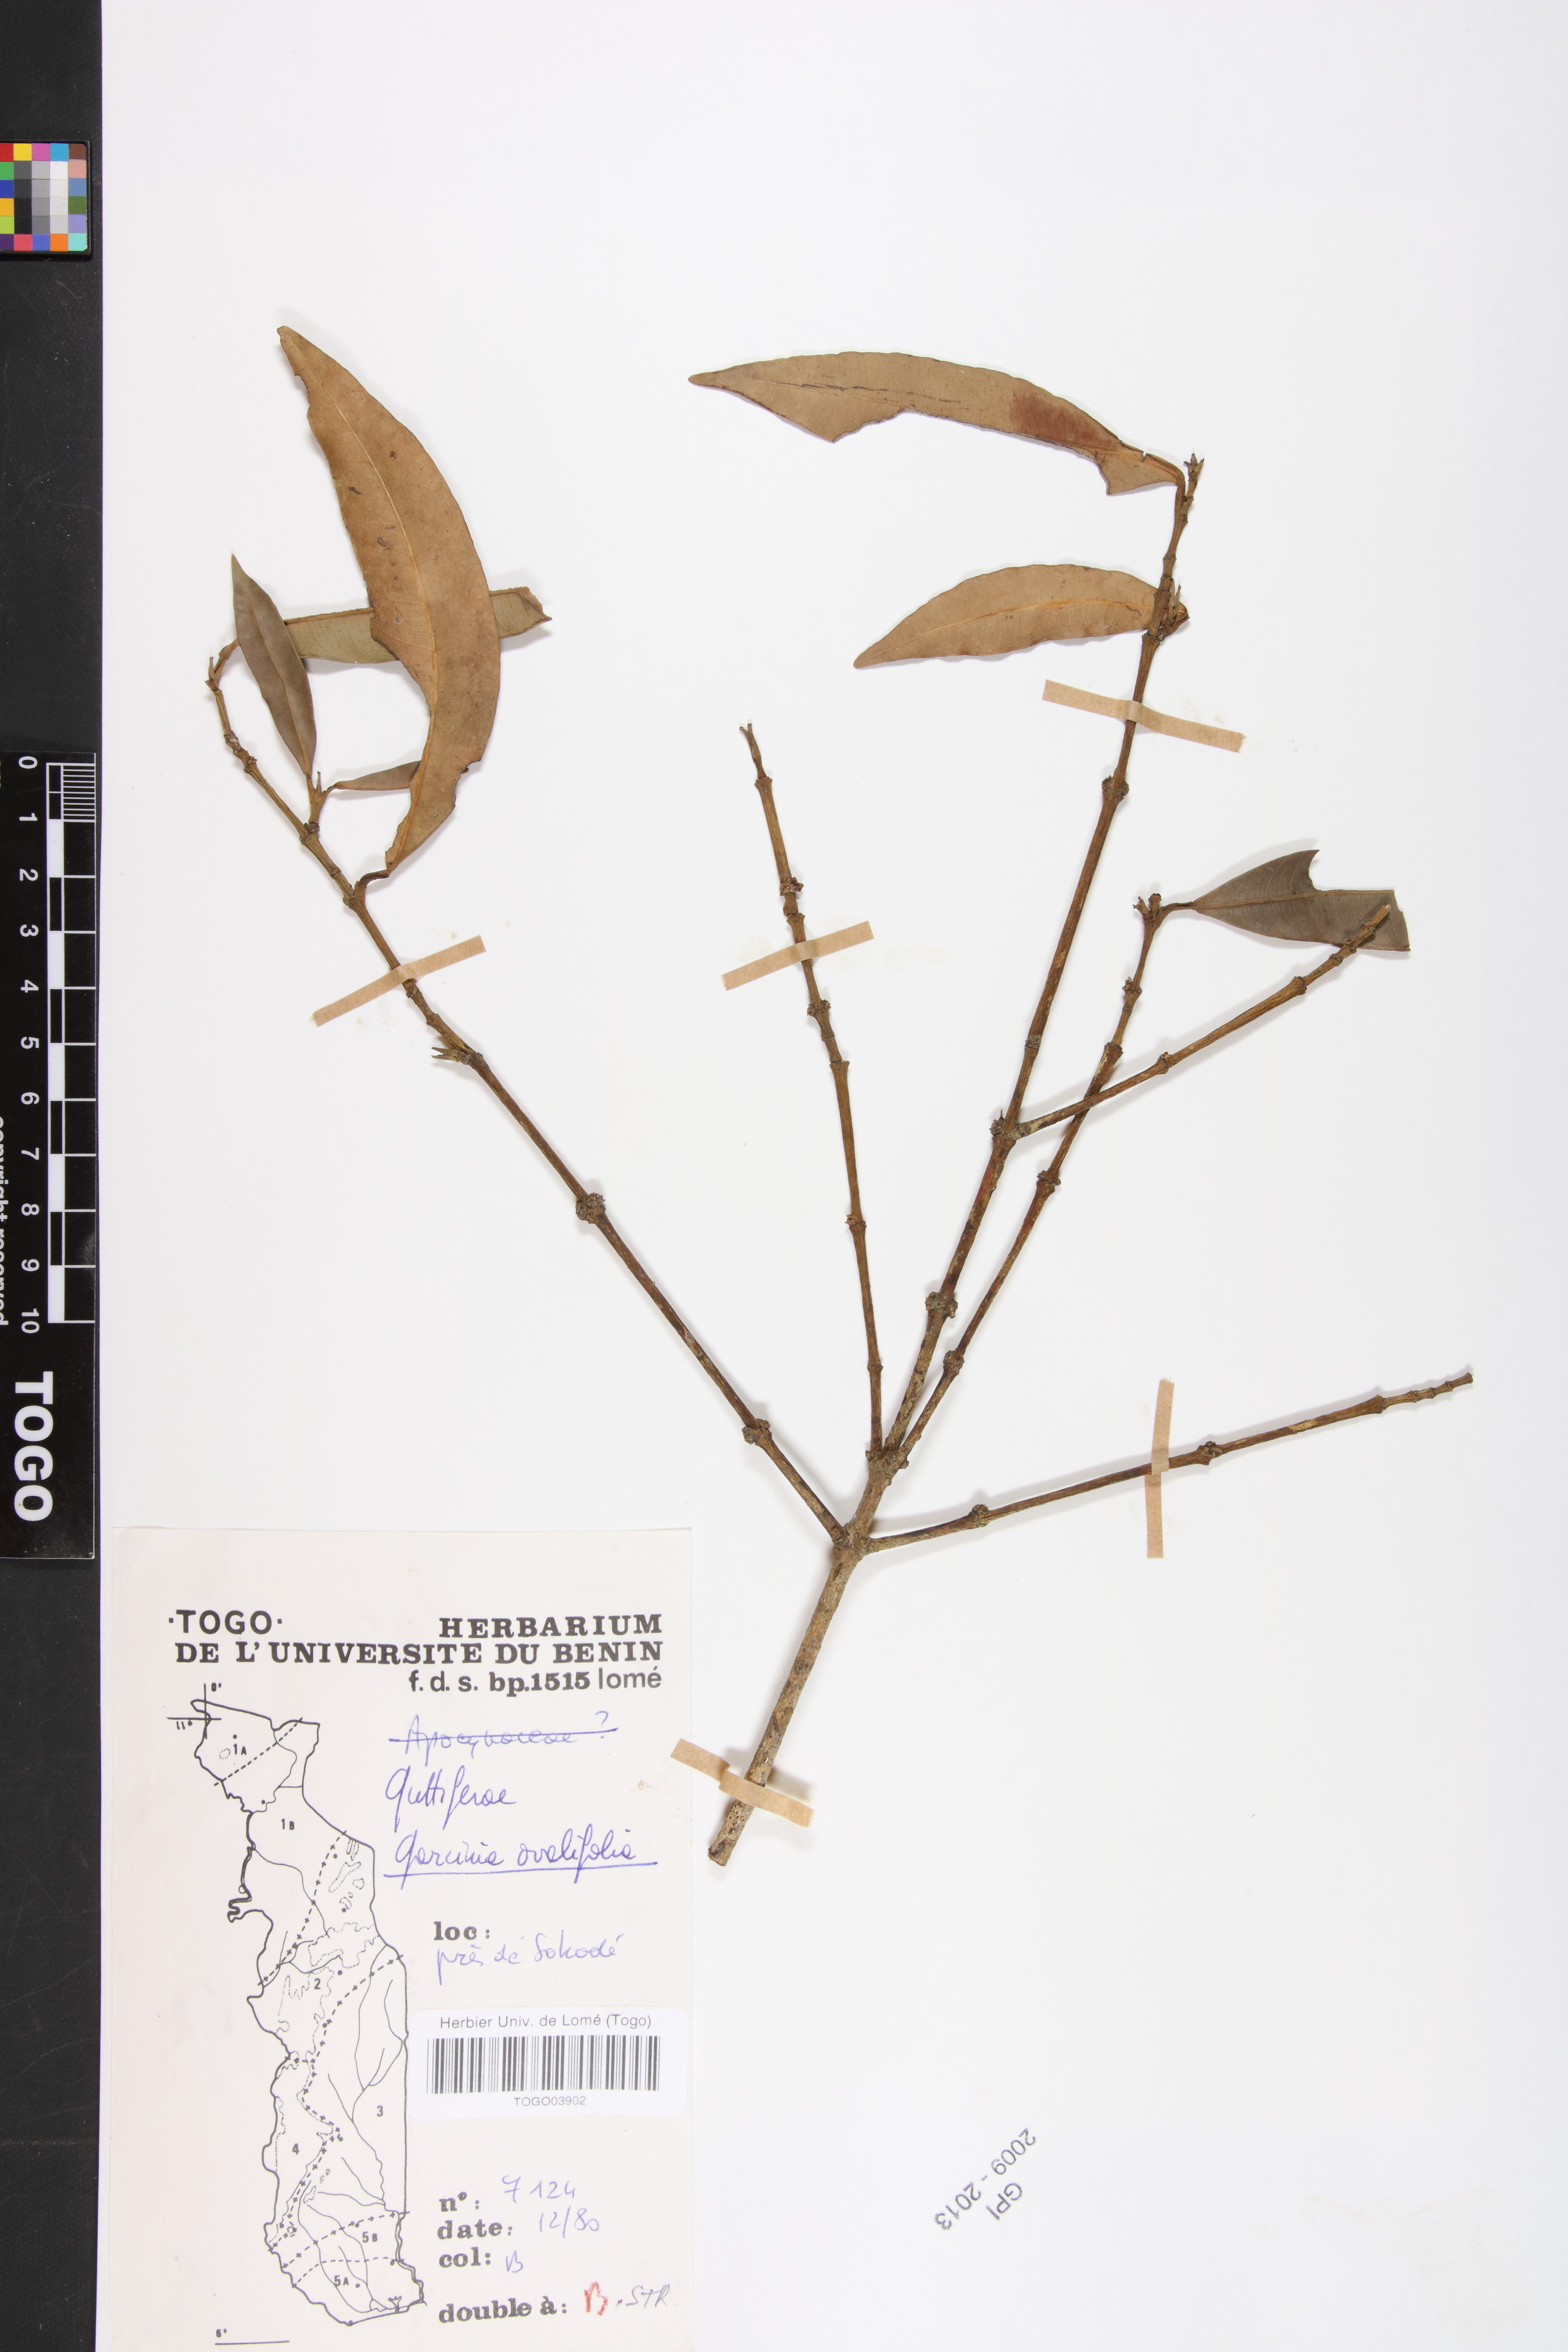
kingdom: Plantae
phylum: Tracheophyta
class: Magnoliopsida
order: Malpighiales
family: Clusiaceae
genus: Garcinia
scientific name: Garcinia ovalifolia
